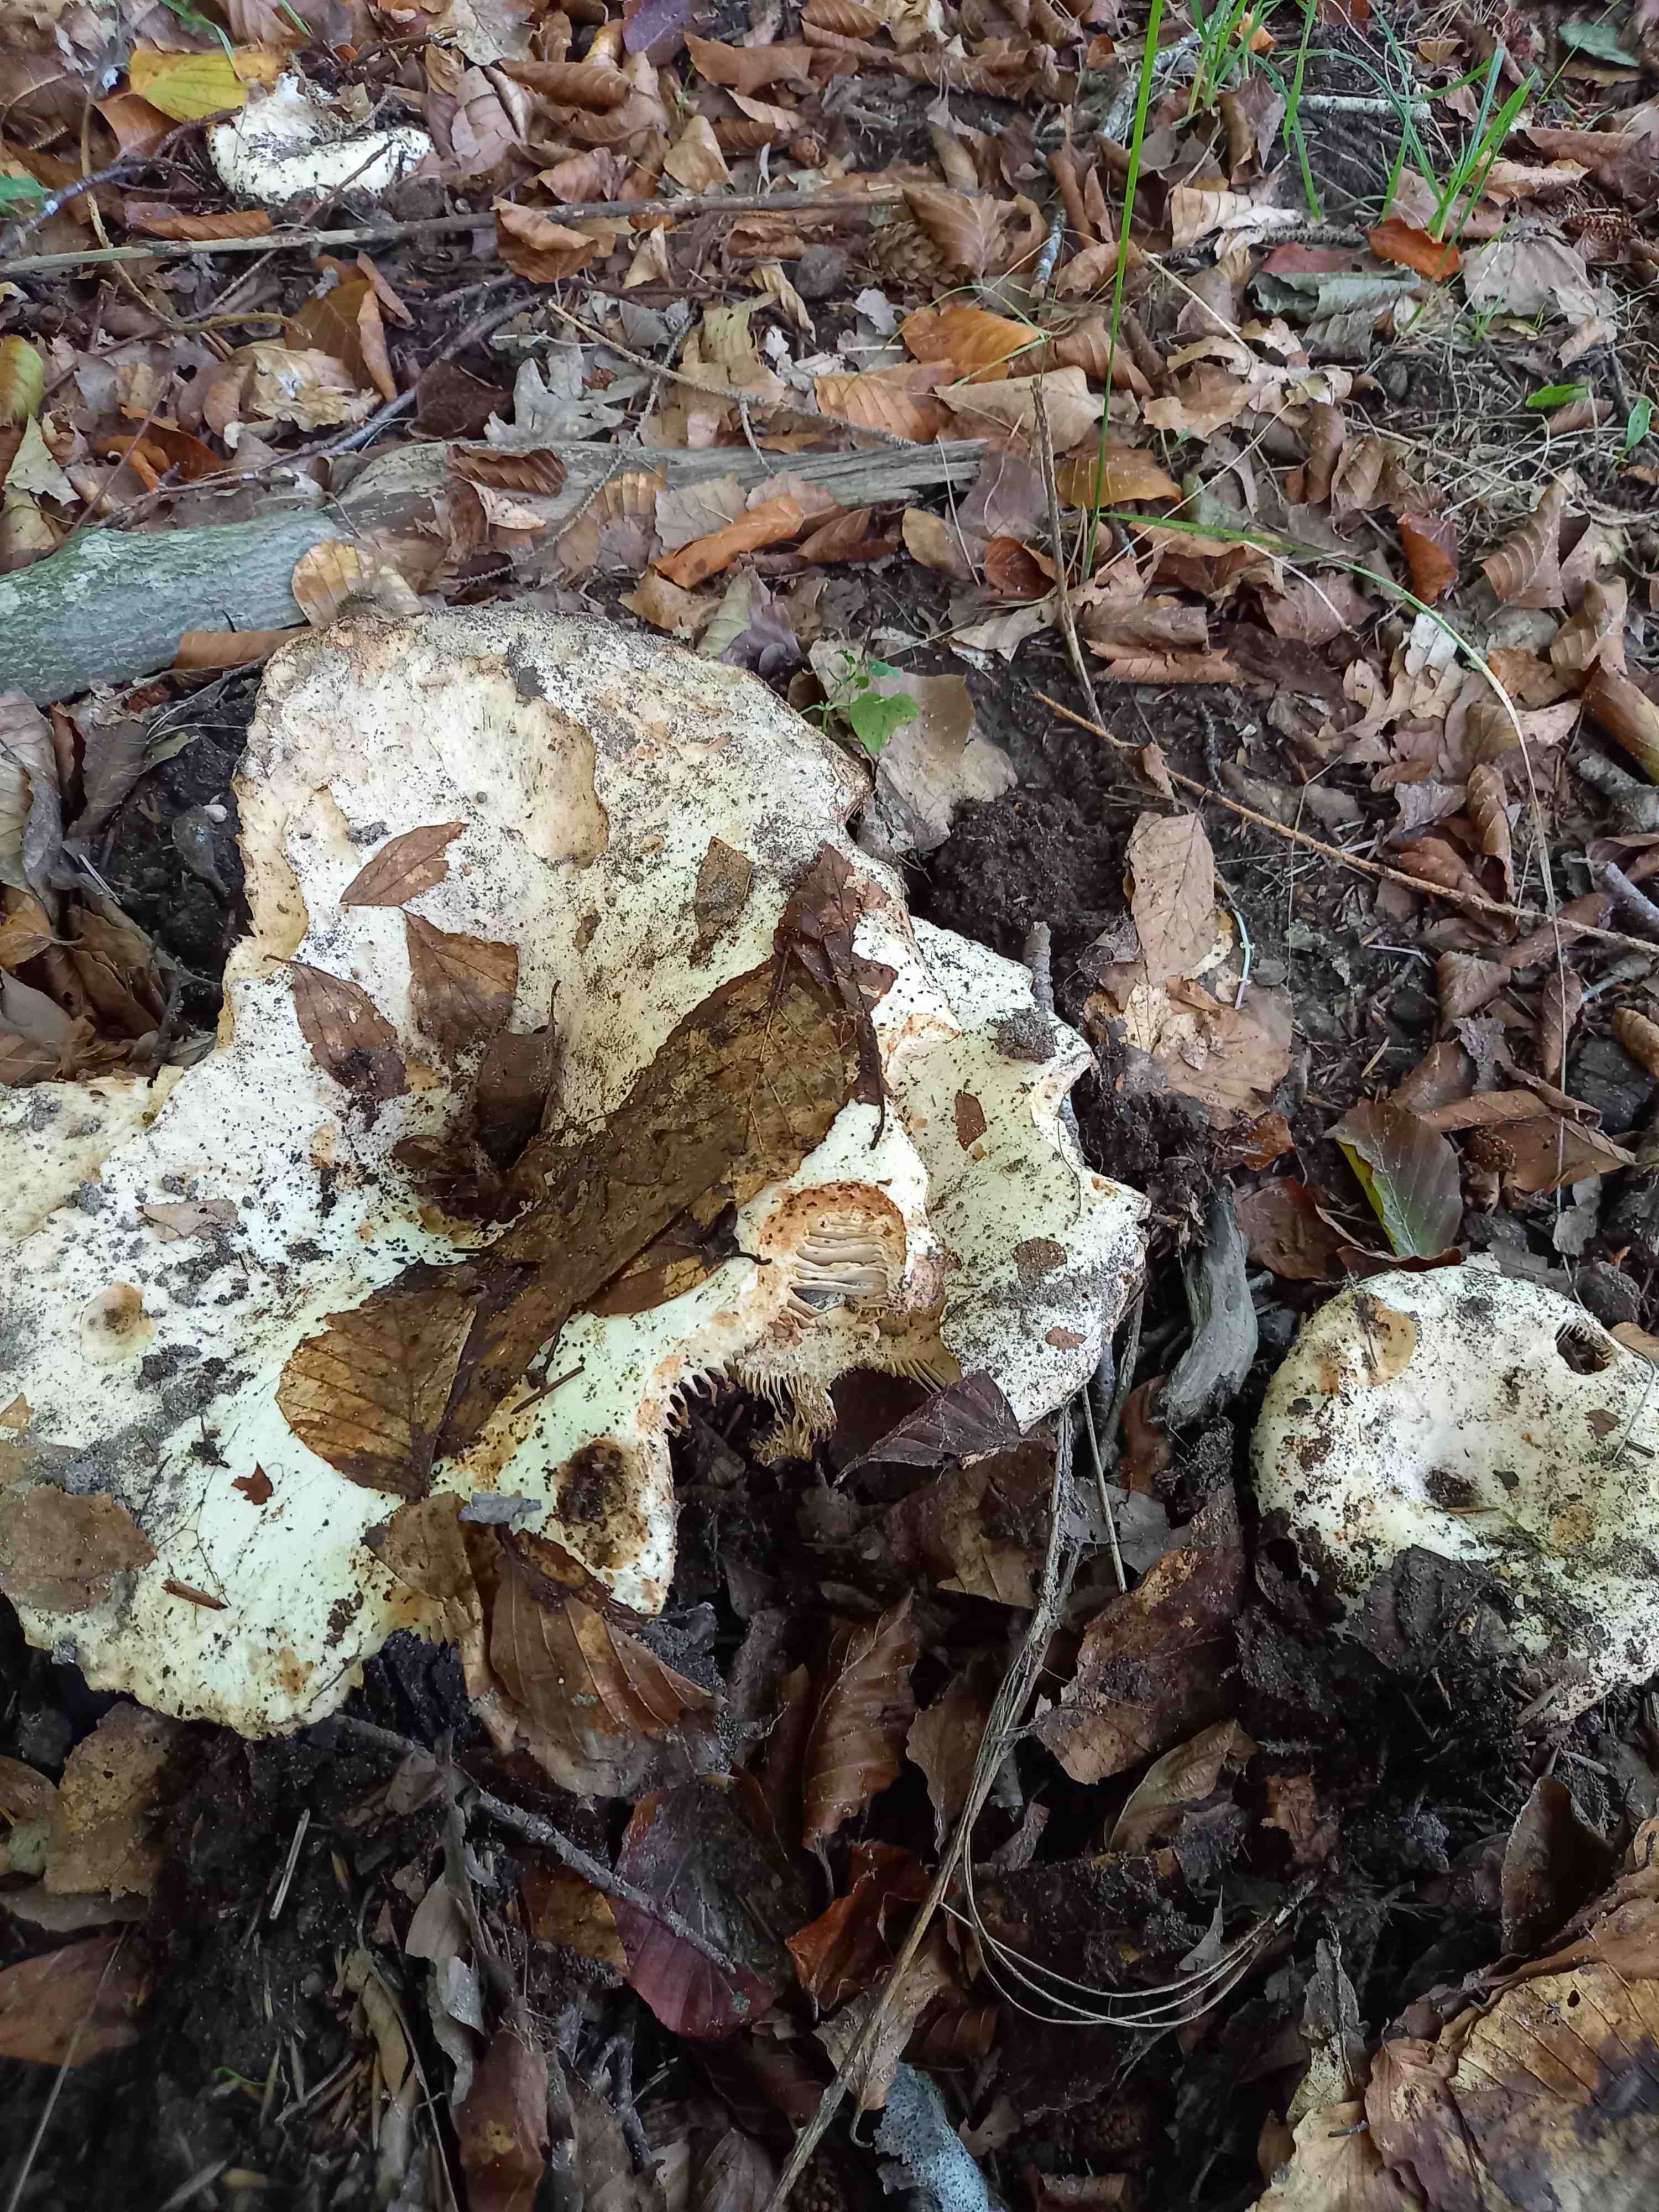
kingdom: Fungi
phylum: Basidiomycota
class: Agaricomycetes
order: Russulales
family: Russulaceae
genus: Russula
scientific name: Russula delica
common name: almindelig tragt-skørhat
